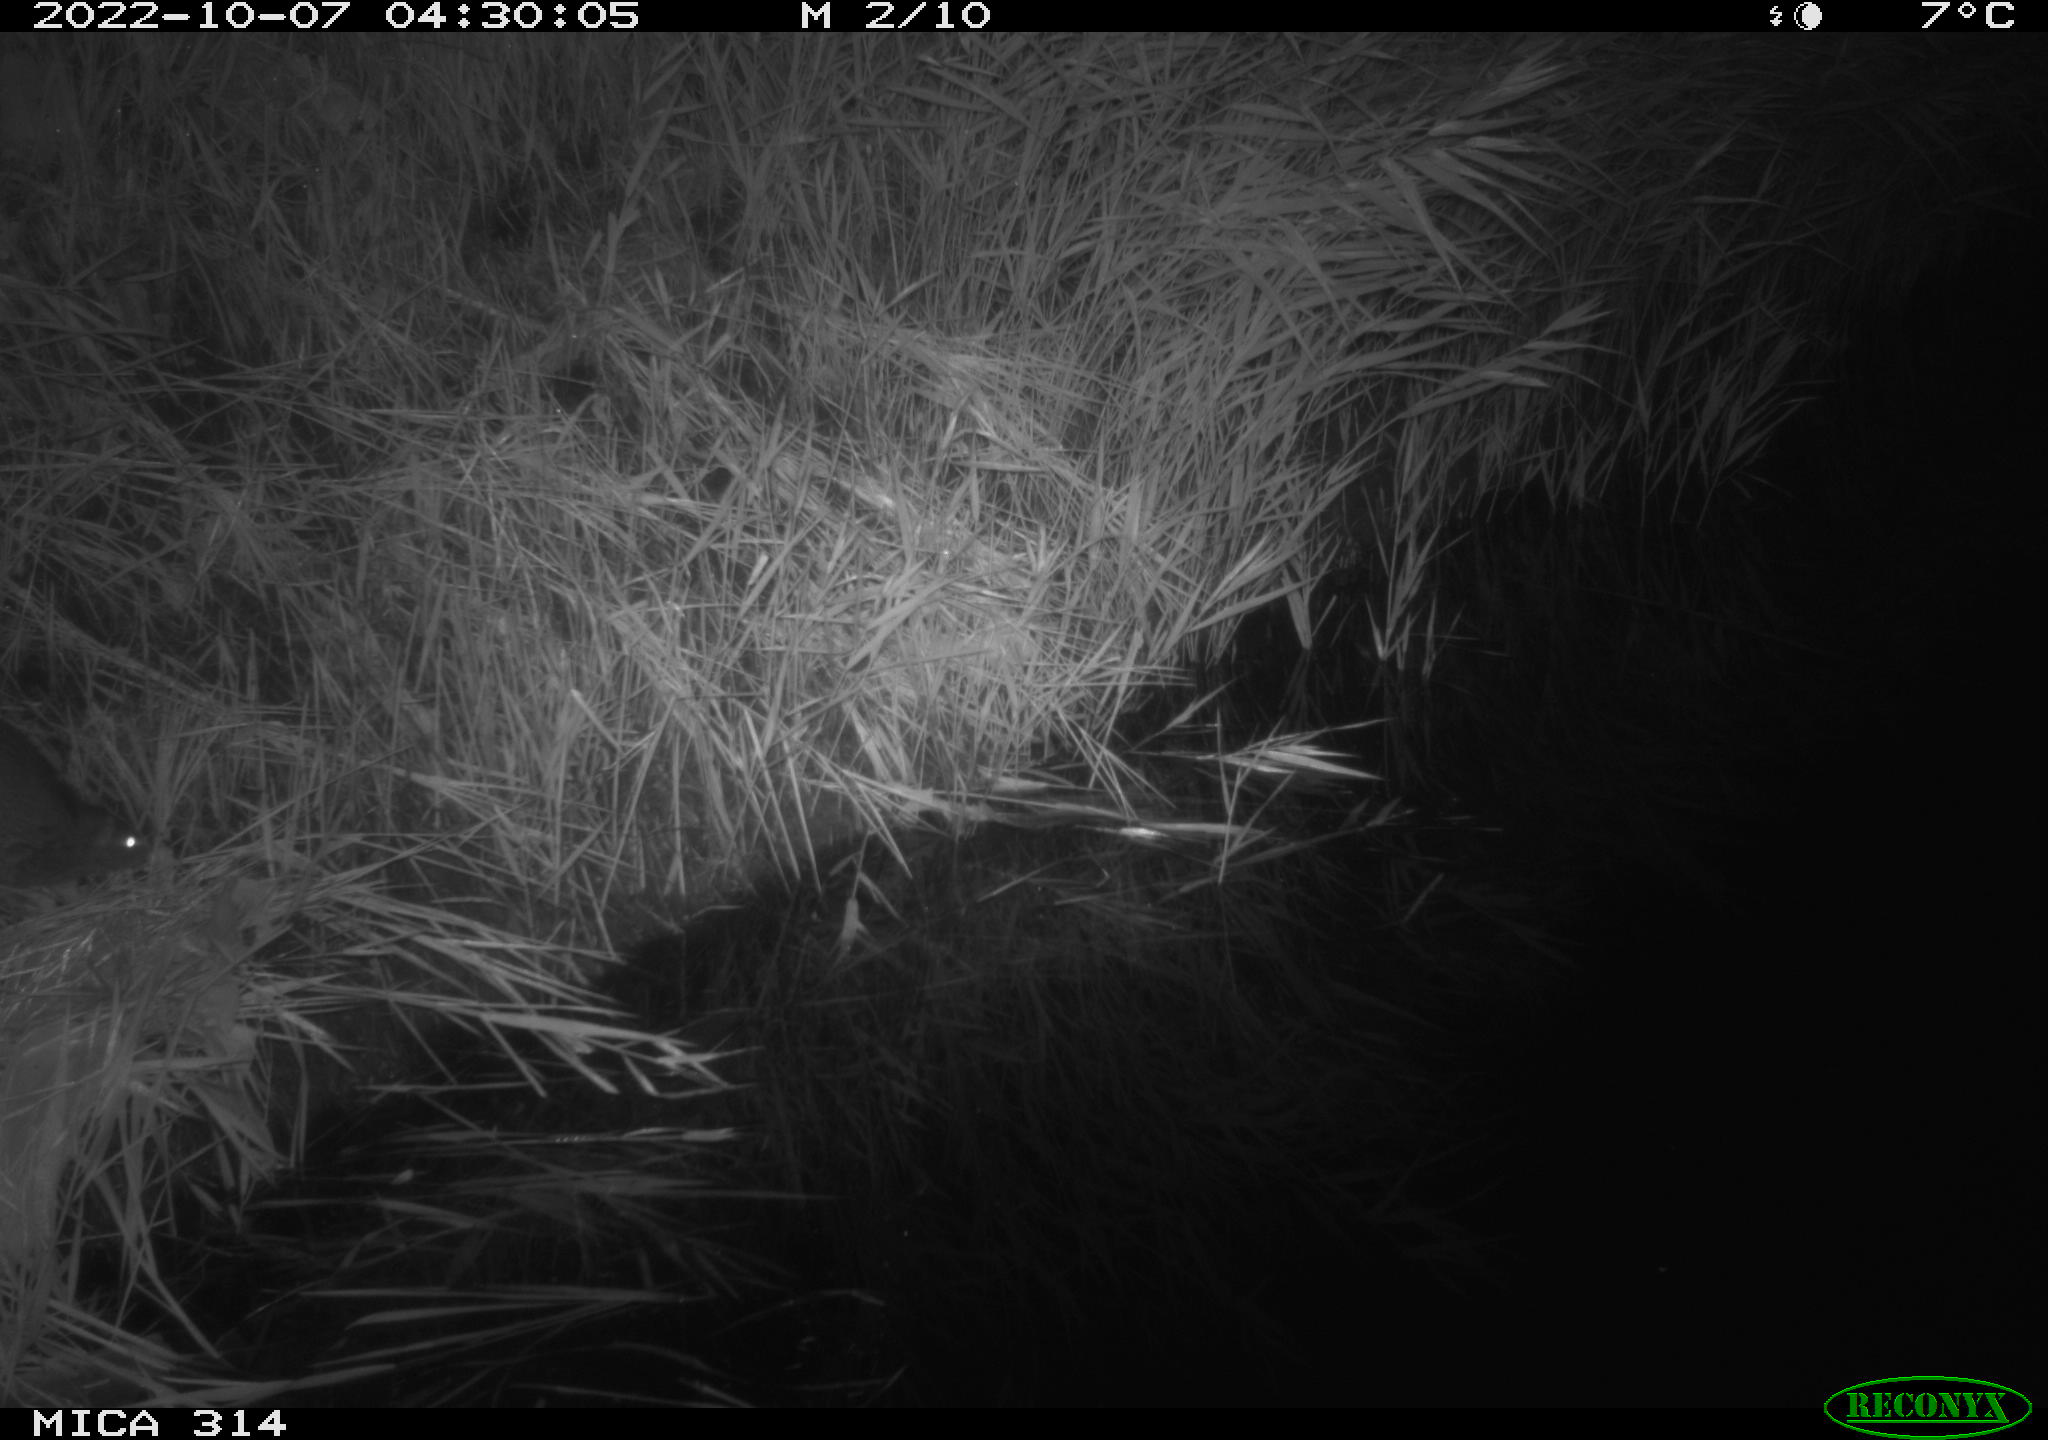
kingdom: Animalia
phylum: Chordata
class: Mammalia
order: Rodentia
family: Muridae
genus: Rattus
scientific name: Rattus norvegicus
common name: Brown rat
